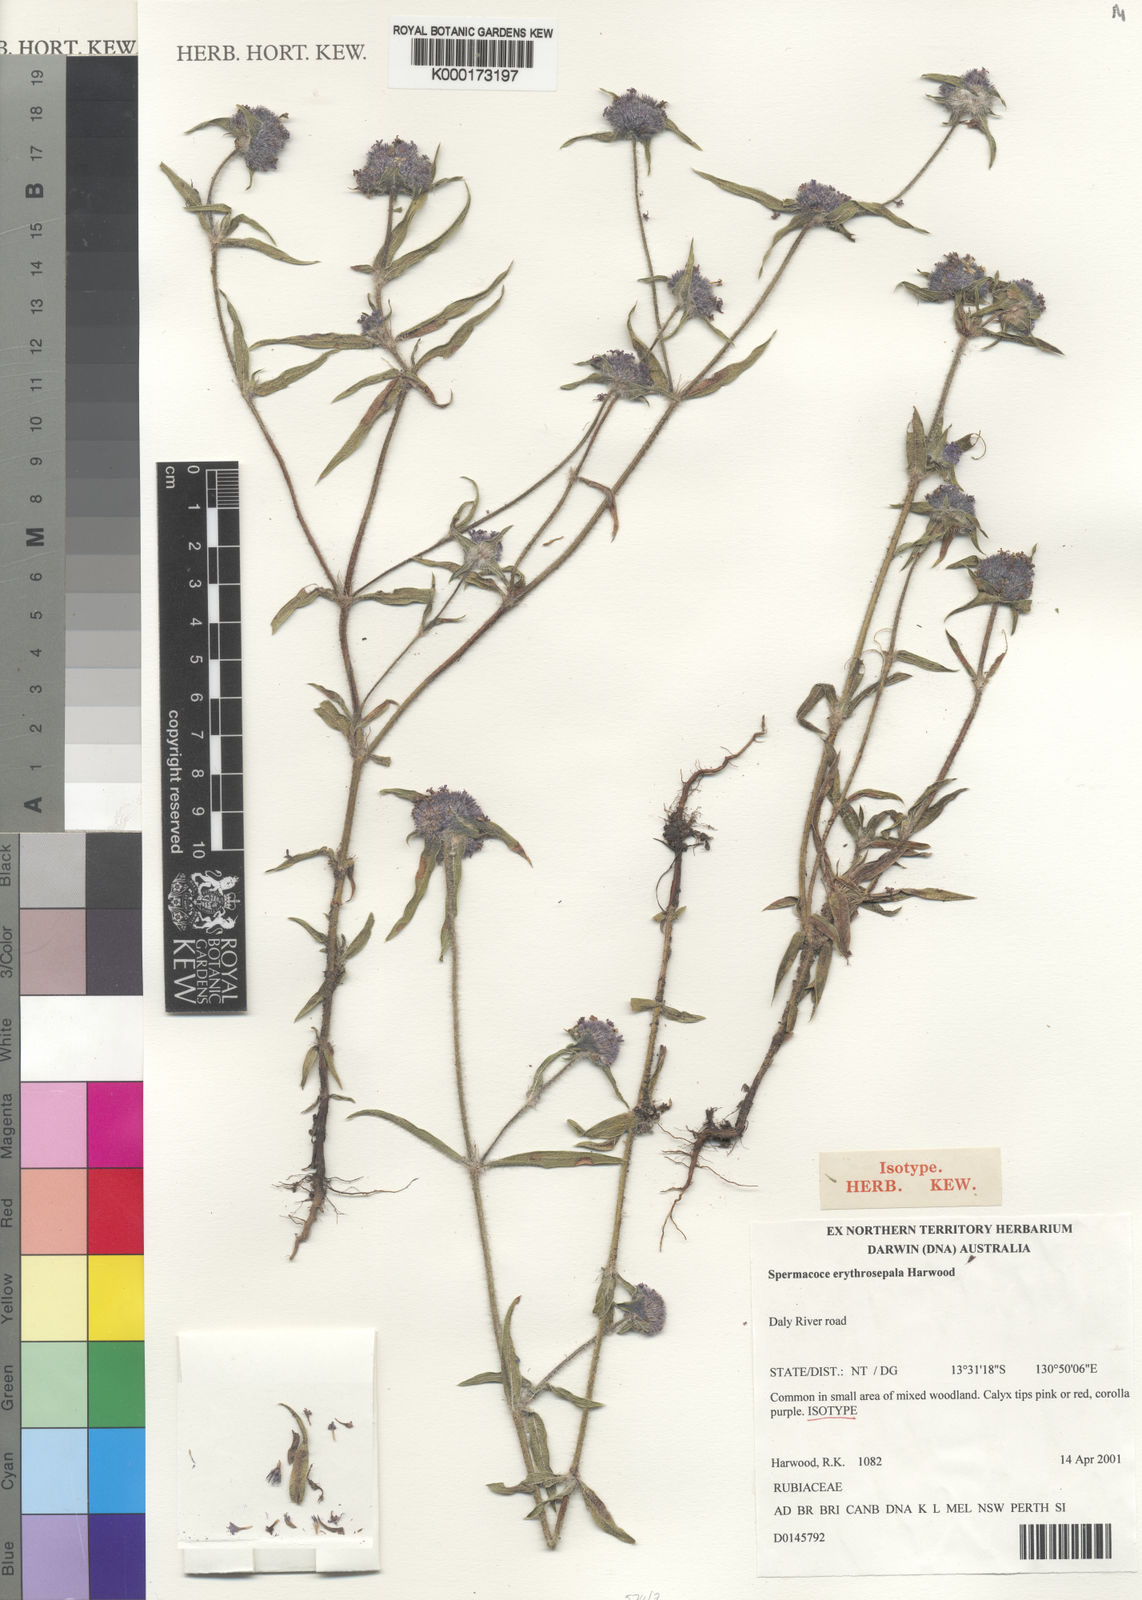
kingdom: Plantae
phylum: Tracheophyta
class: Magnoliopsida
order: Gentianales
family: Rubiaceae
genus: Spermacoce
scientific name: Spermacoce erythrosepala
